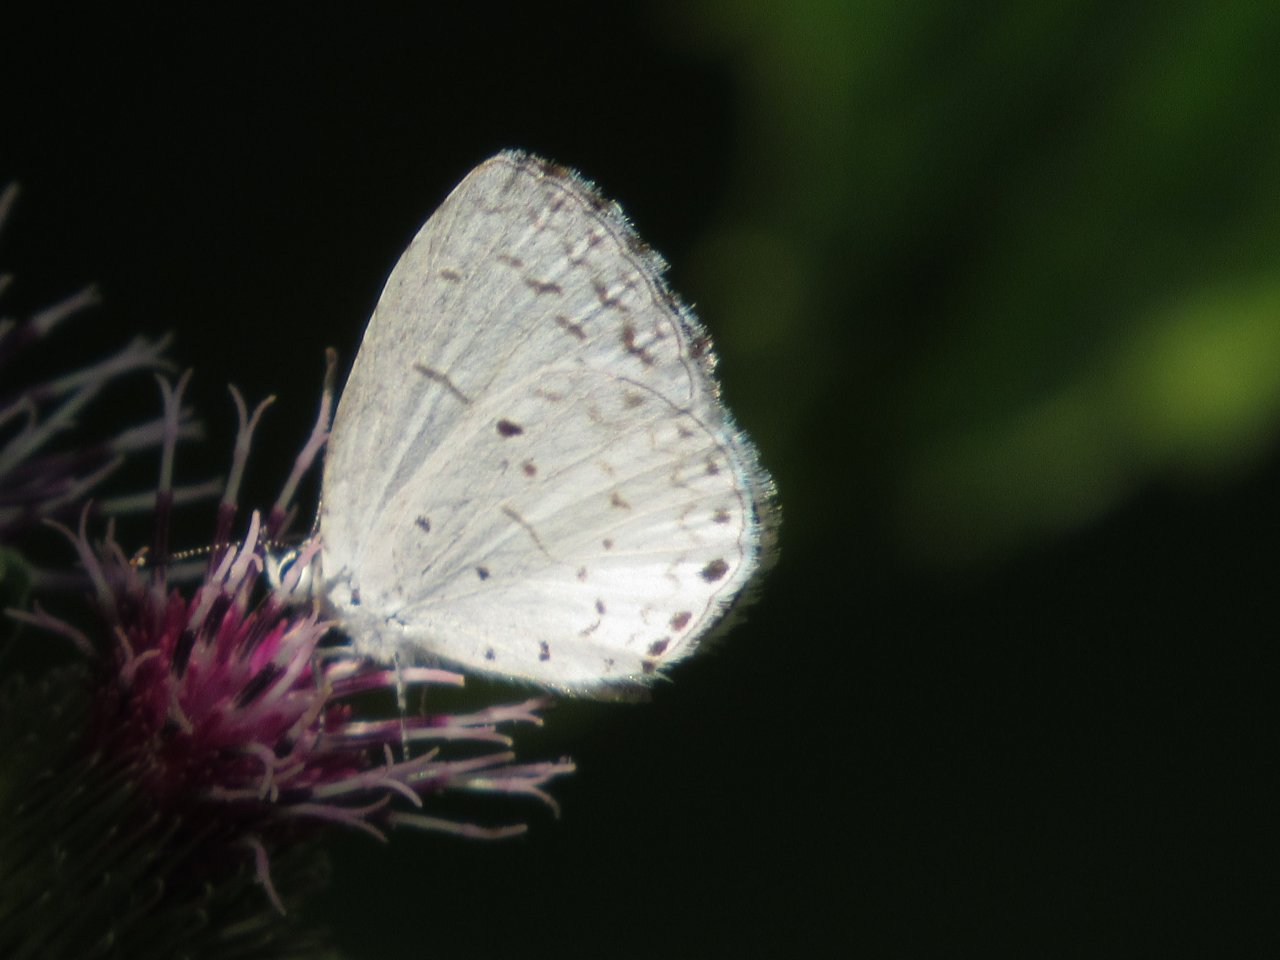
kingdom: Animalia
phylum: Arthropoda
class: Insecta
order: Lepidoptera
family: Lycaenidae
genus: Cyaniris
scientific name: Cyaniris neglecta
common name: Summer Azure
